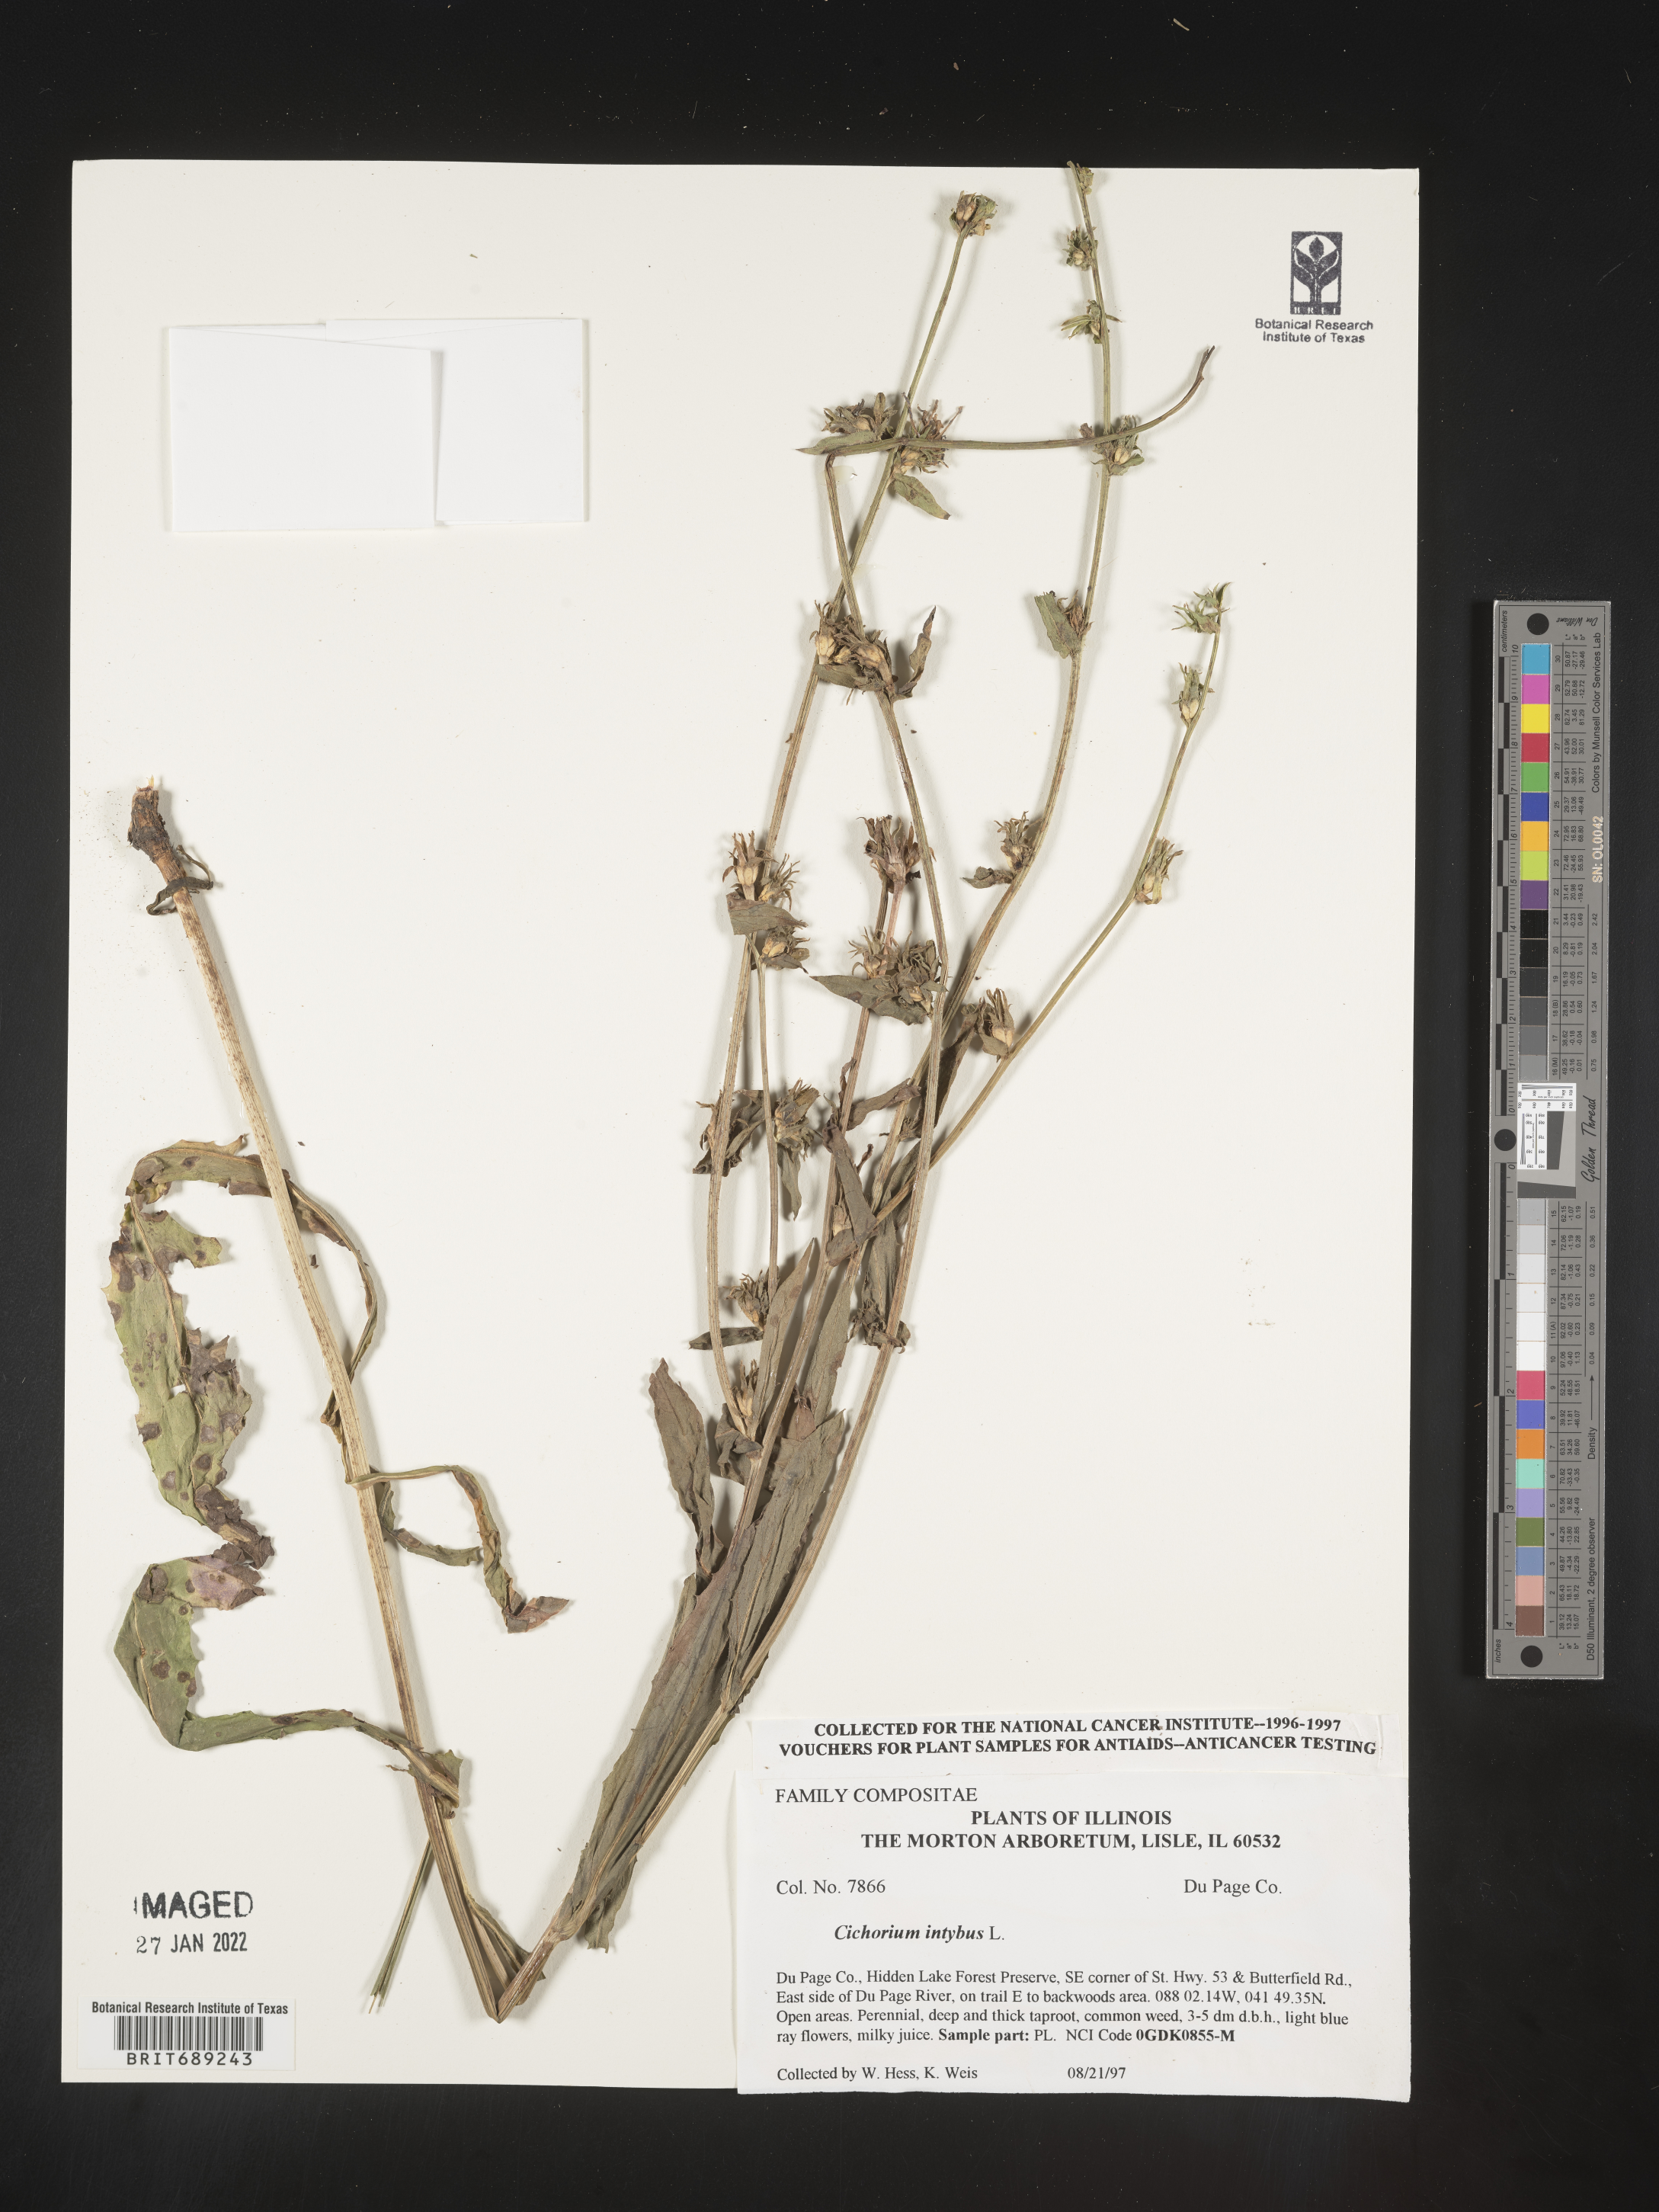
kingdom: Plantae
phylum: Tracheophyta
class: Magnoliopsida
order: Asterales
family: Asteraceae
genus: Cichorium
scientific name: Cichorium intybus
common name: Chicory
